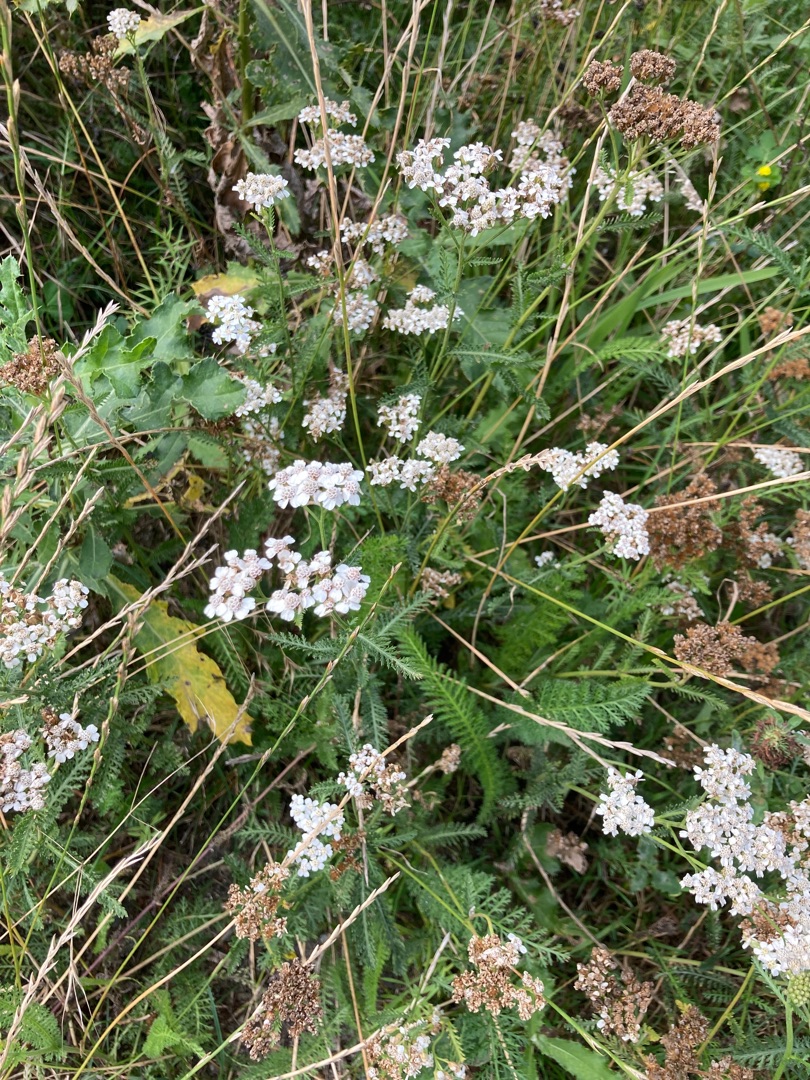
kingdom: Plantae
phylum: Tracheophyta
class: Magnoliopsida
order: Asterales
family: Asteraceae
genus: Achillea
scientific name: Achillea millefolium
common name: Almindelig røllike
